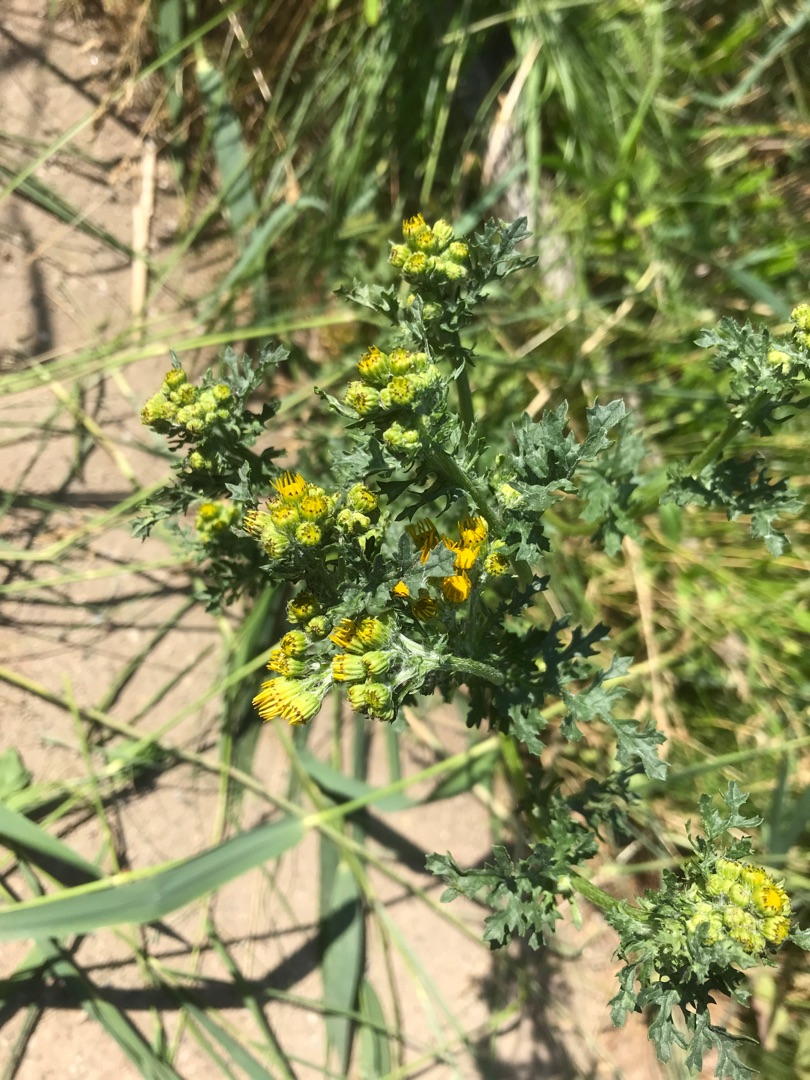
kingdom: Plantae
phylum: Tracheophyta
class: Magnoliopsida
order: Asterales
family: Asteraceae
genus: Jacobaea
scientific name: Jacobaea vulgaris
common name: Eng-brandbæger
